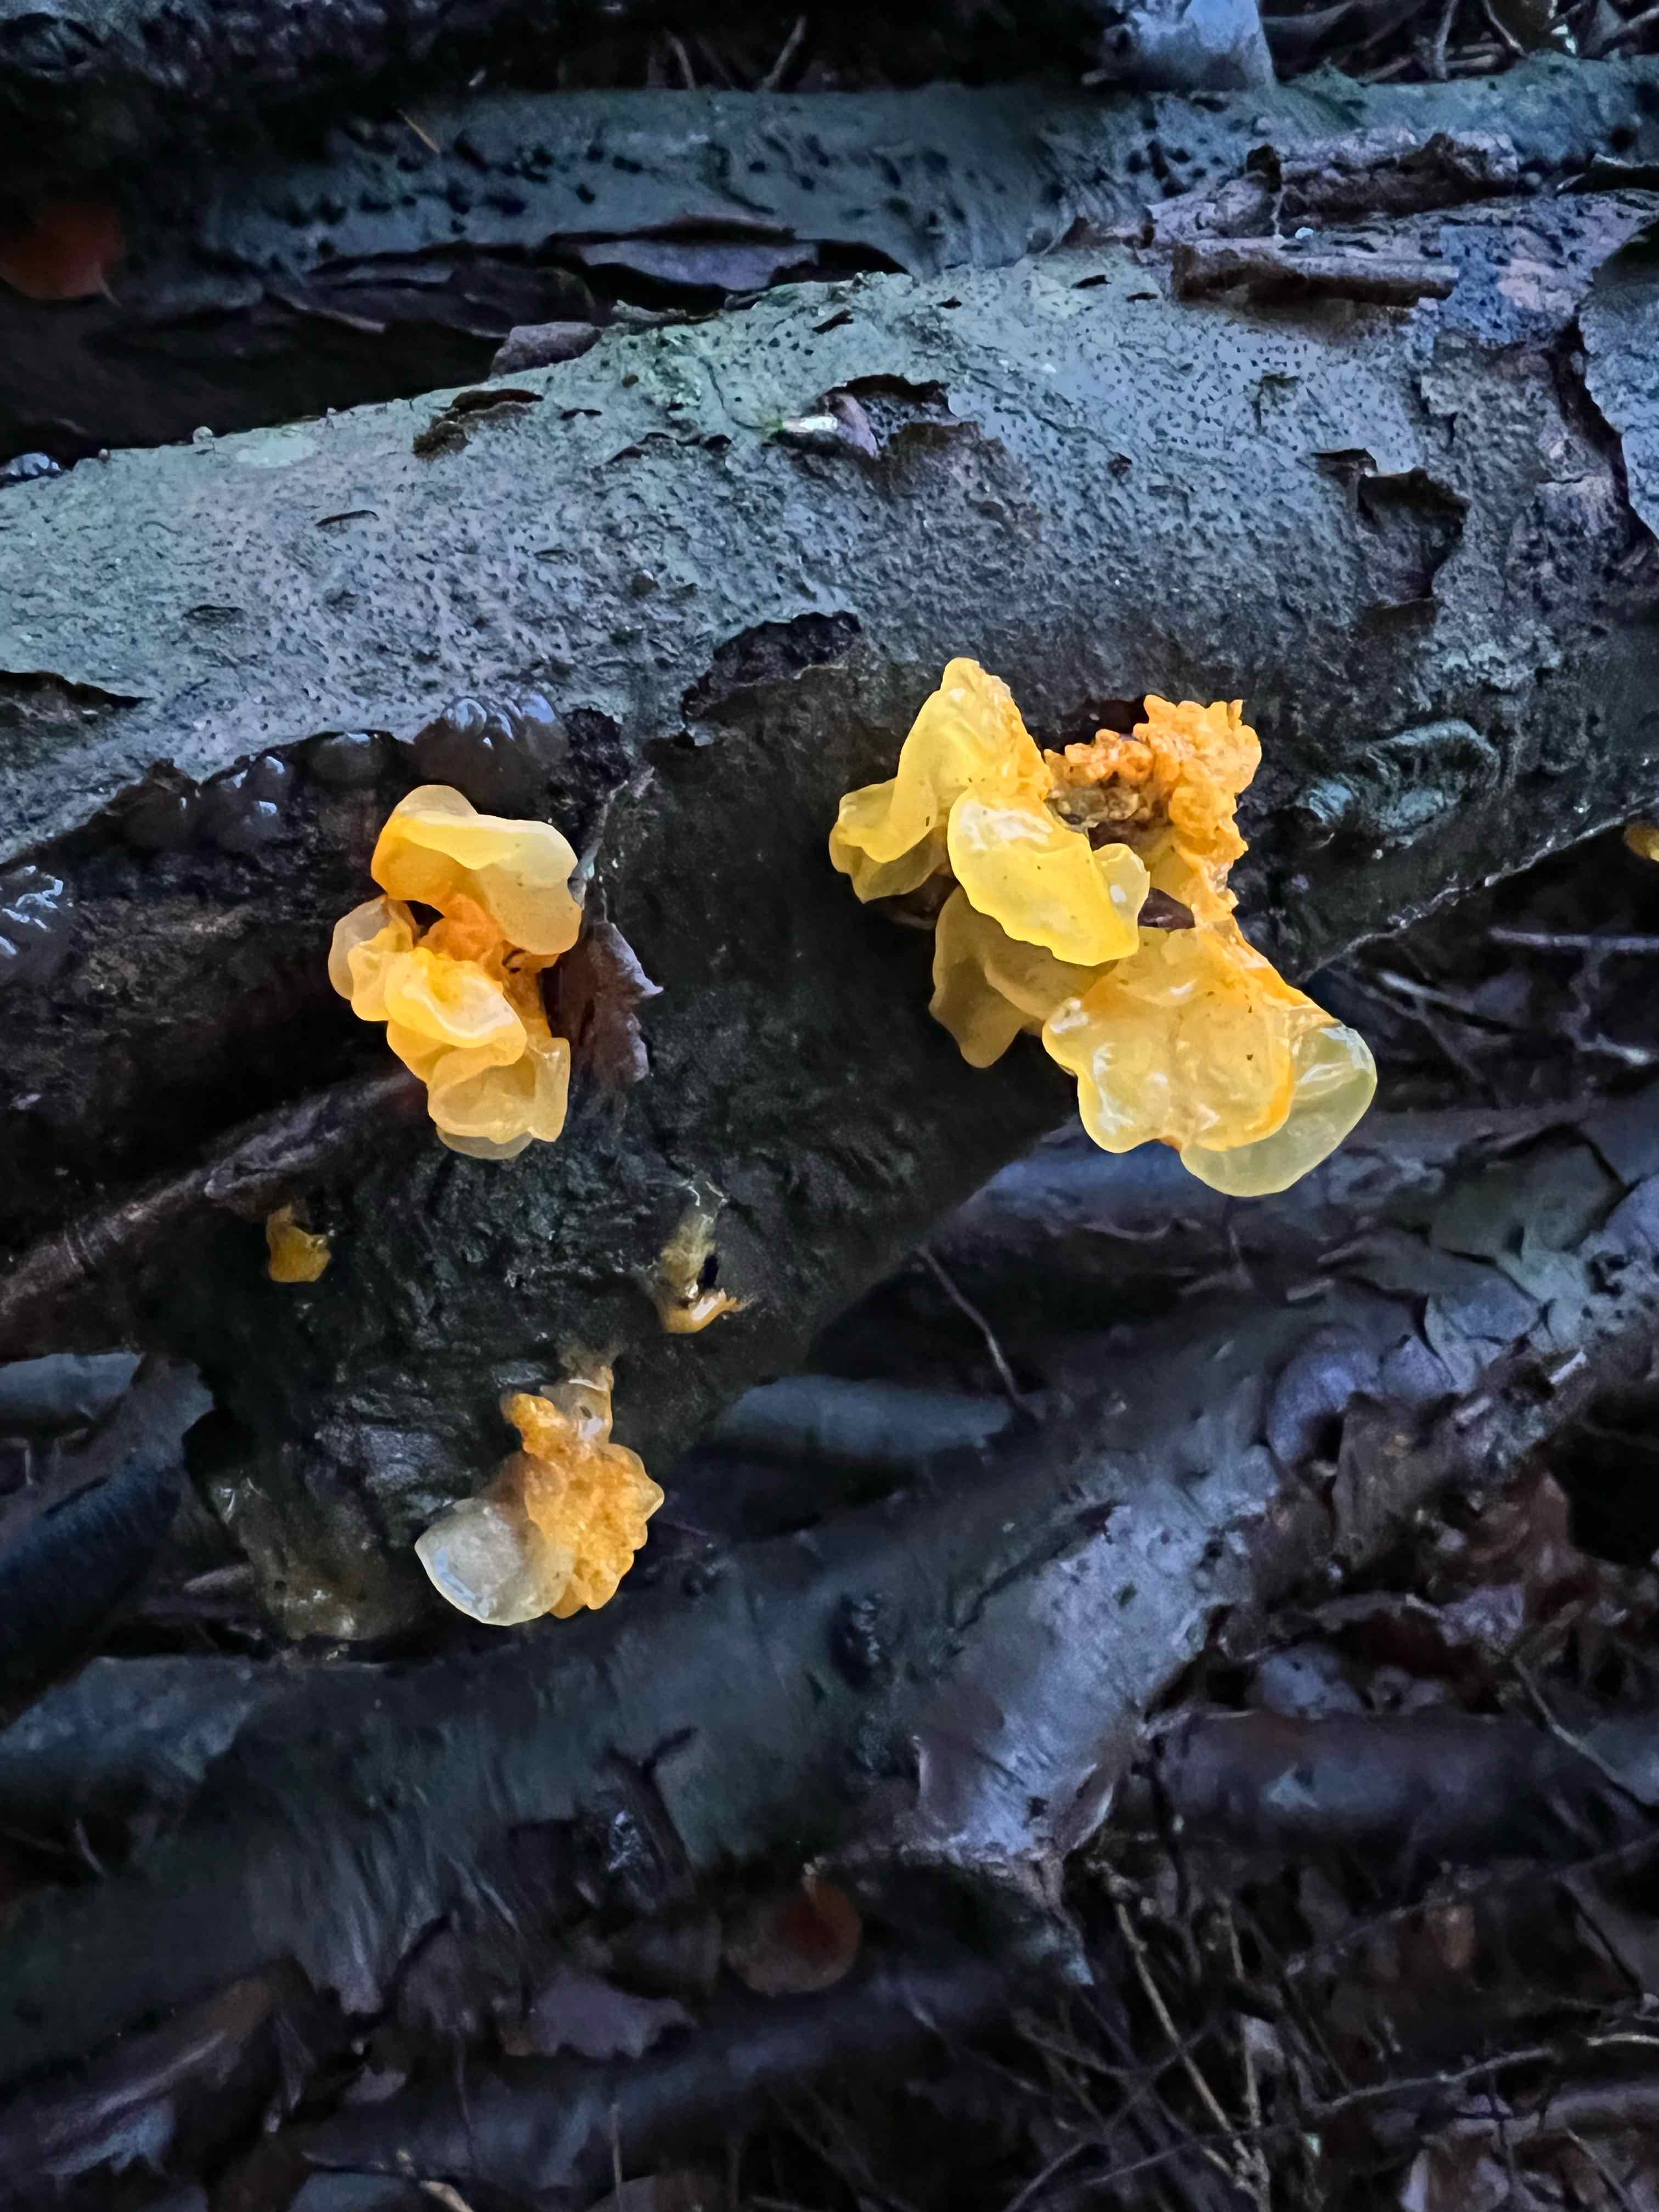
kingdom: Fungi
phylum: Basidiomycota
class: Tremellomycetes
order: Tremellales
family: Tremellaceae
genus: Tremella
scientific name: Tremella mesenterica
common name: gul bævresvamp
